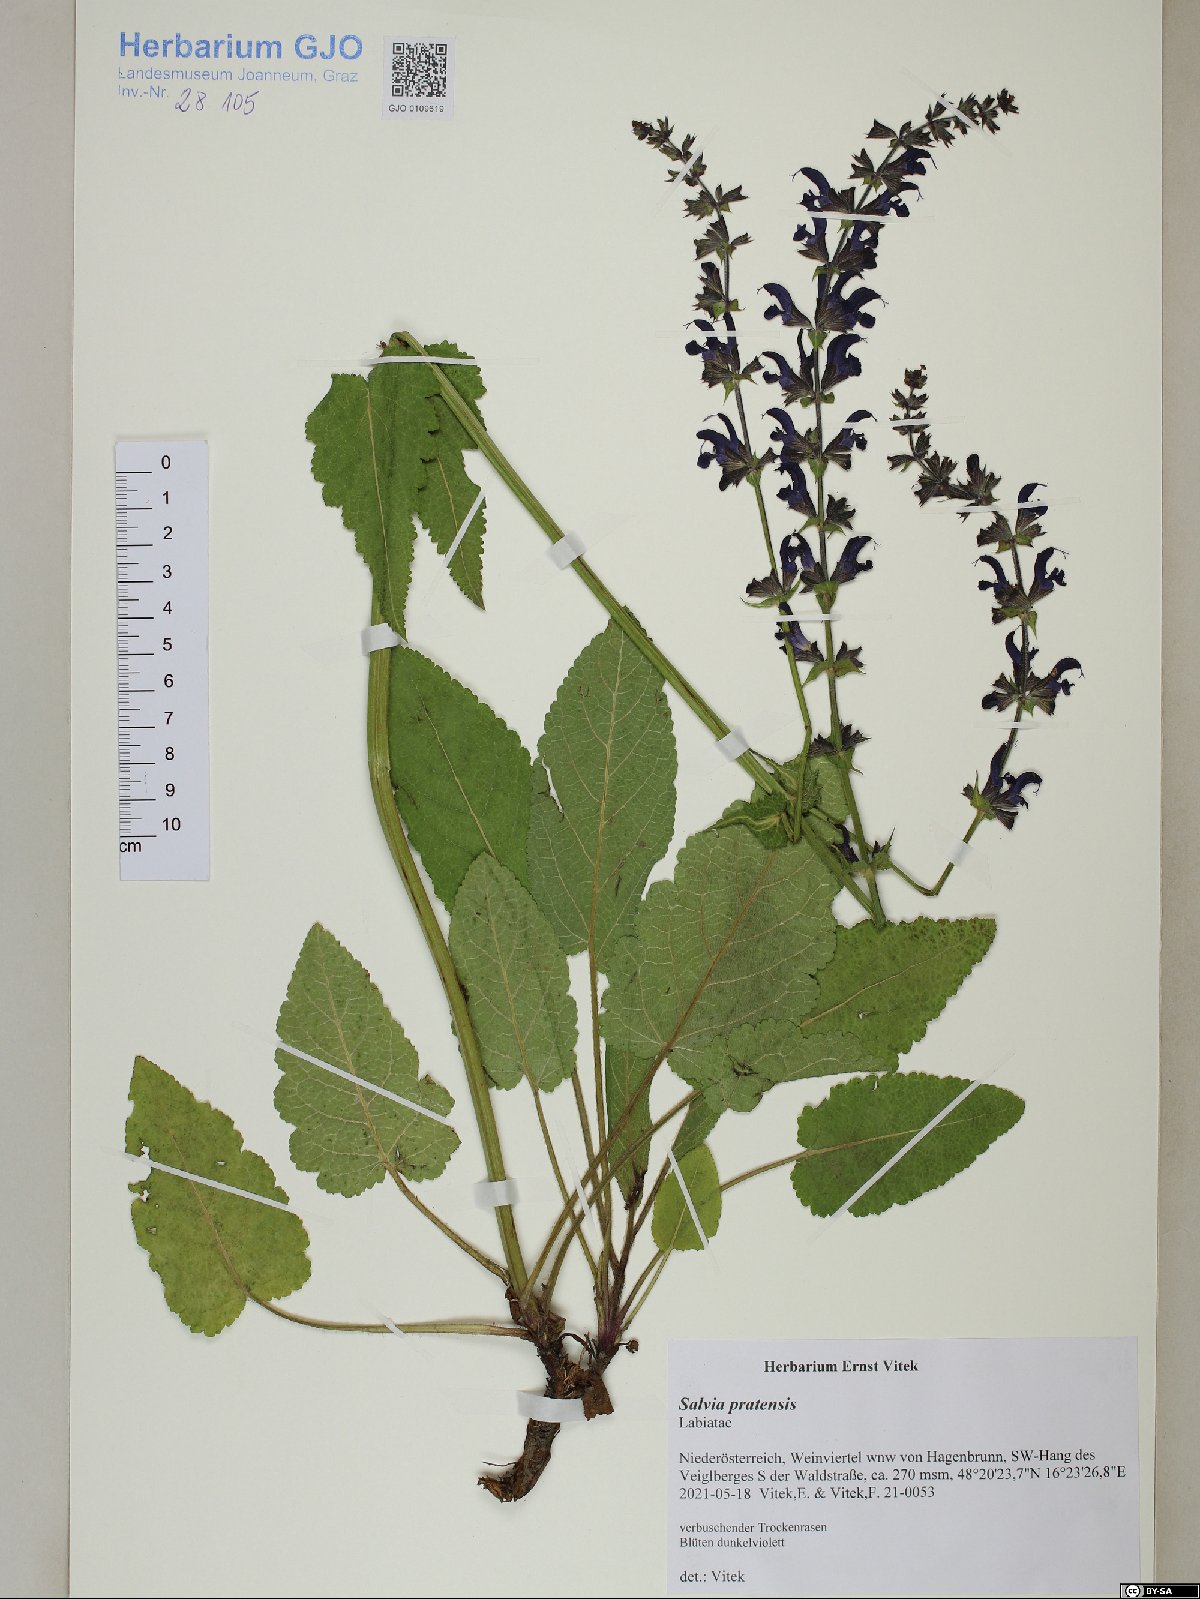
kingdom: Plantae
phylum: Tracheophyta
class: Magnoliopsida
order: Lamiales
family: Lamiaceae
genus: Salvia
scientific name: Salvia pratensis
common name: Meadow sage
